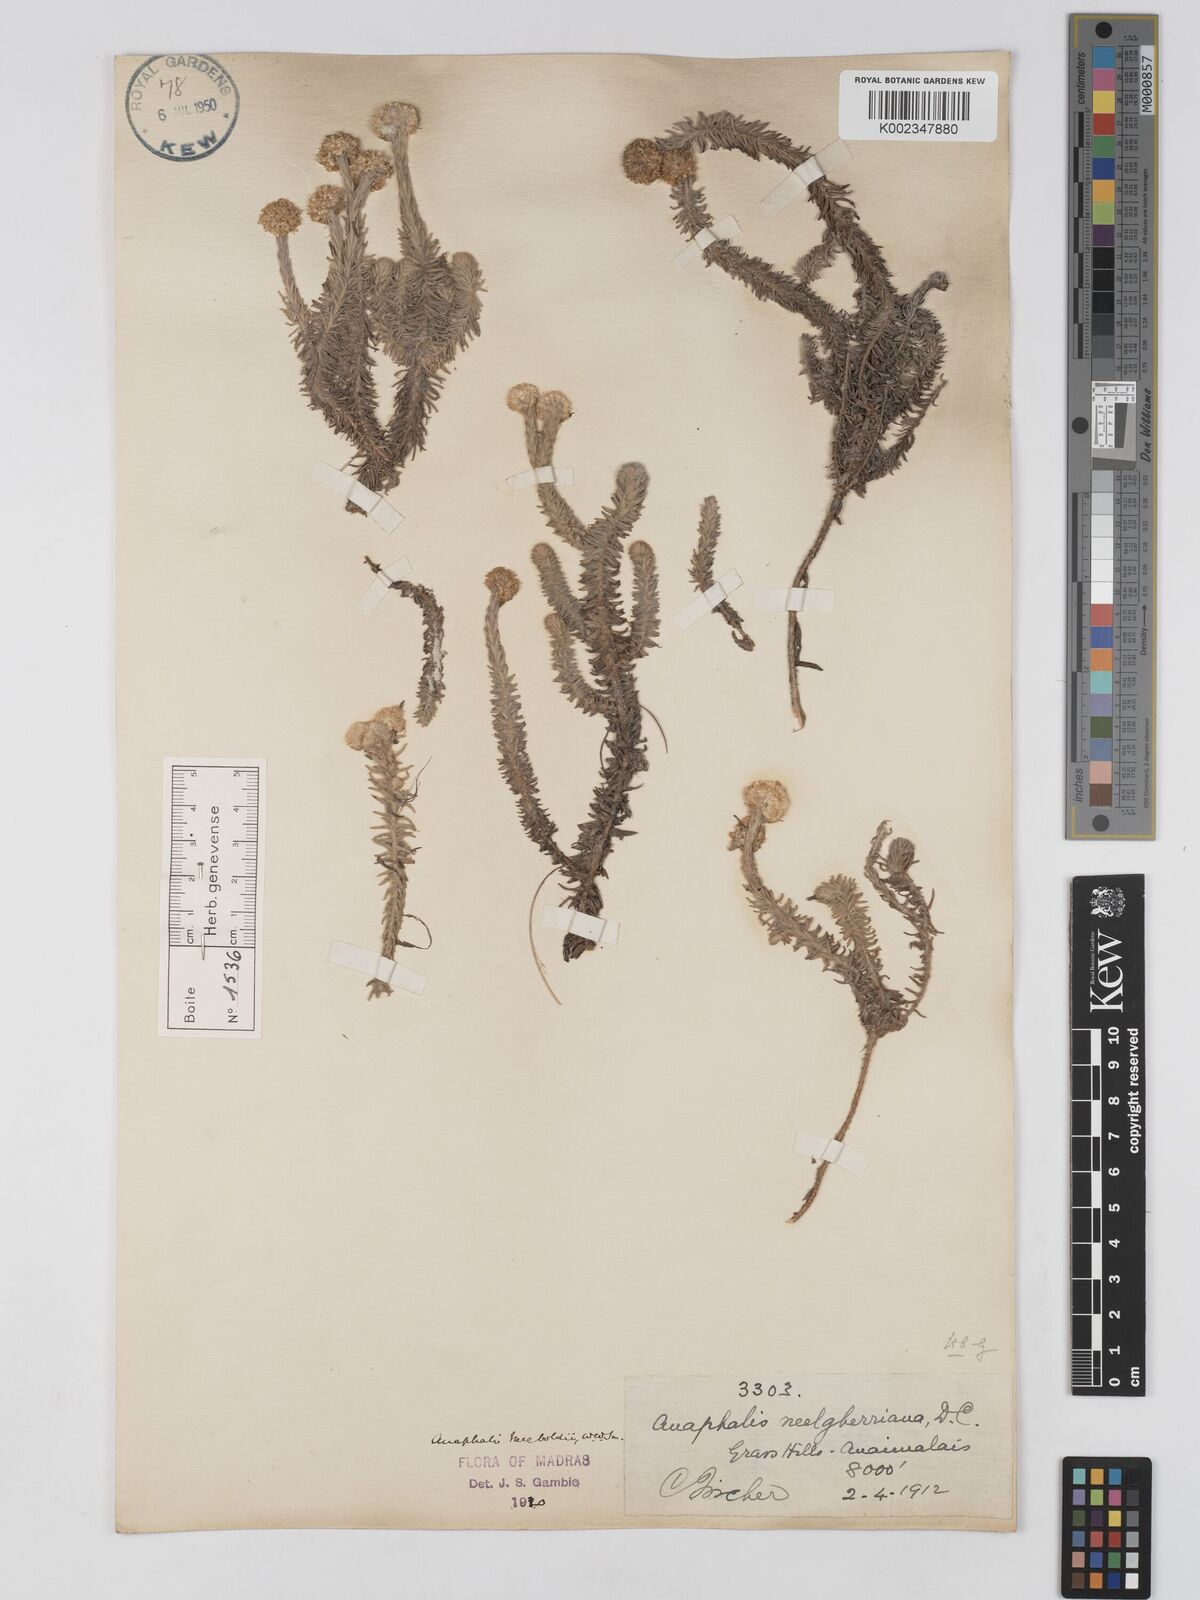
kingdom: Plantae
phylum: Tracheophyta
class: Magnoliopsida
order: Asterales
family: Asteraceae
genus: Anaphalis
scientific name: Anaphalis meeboldii
